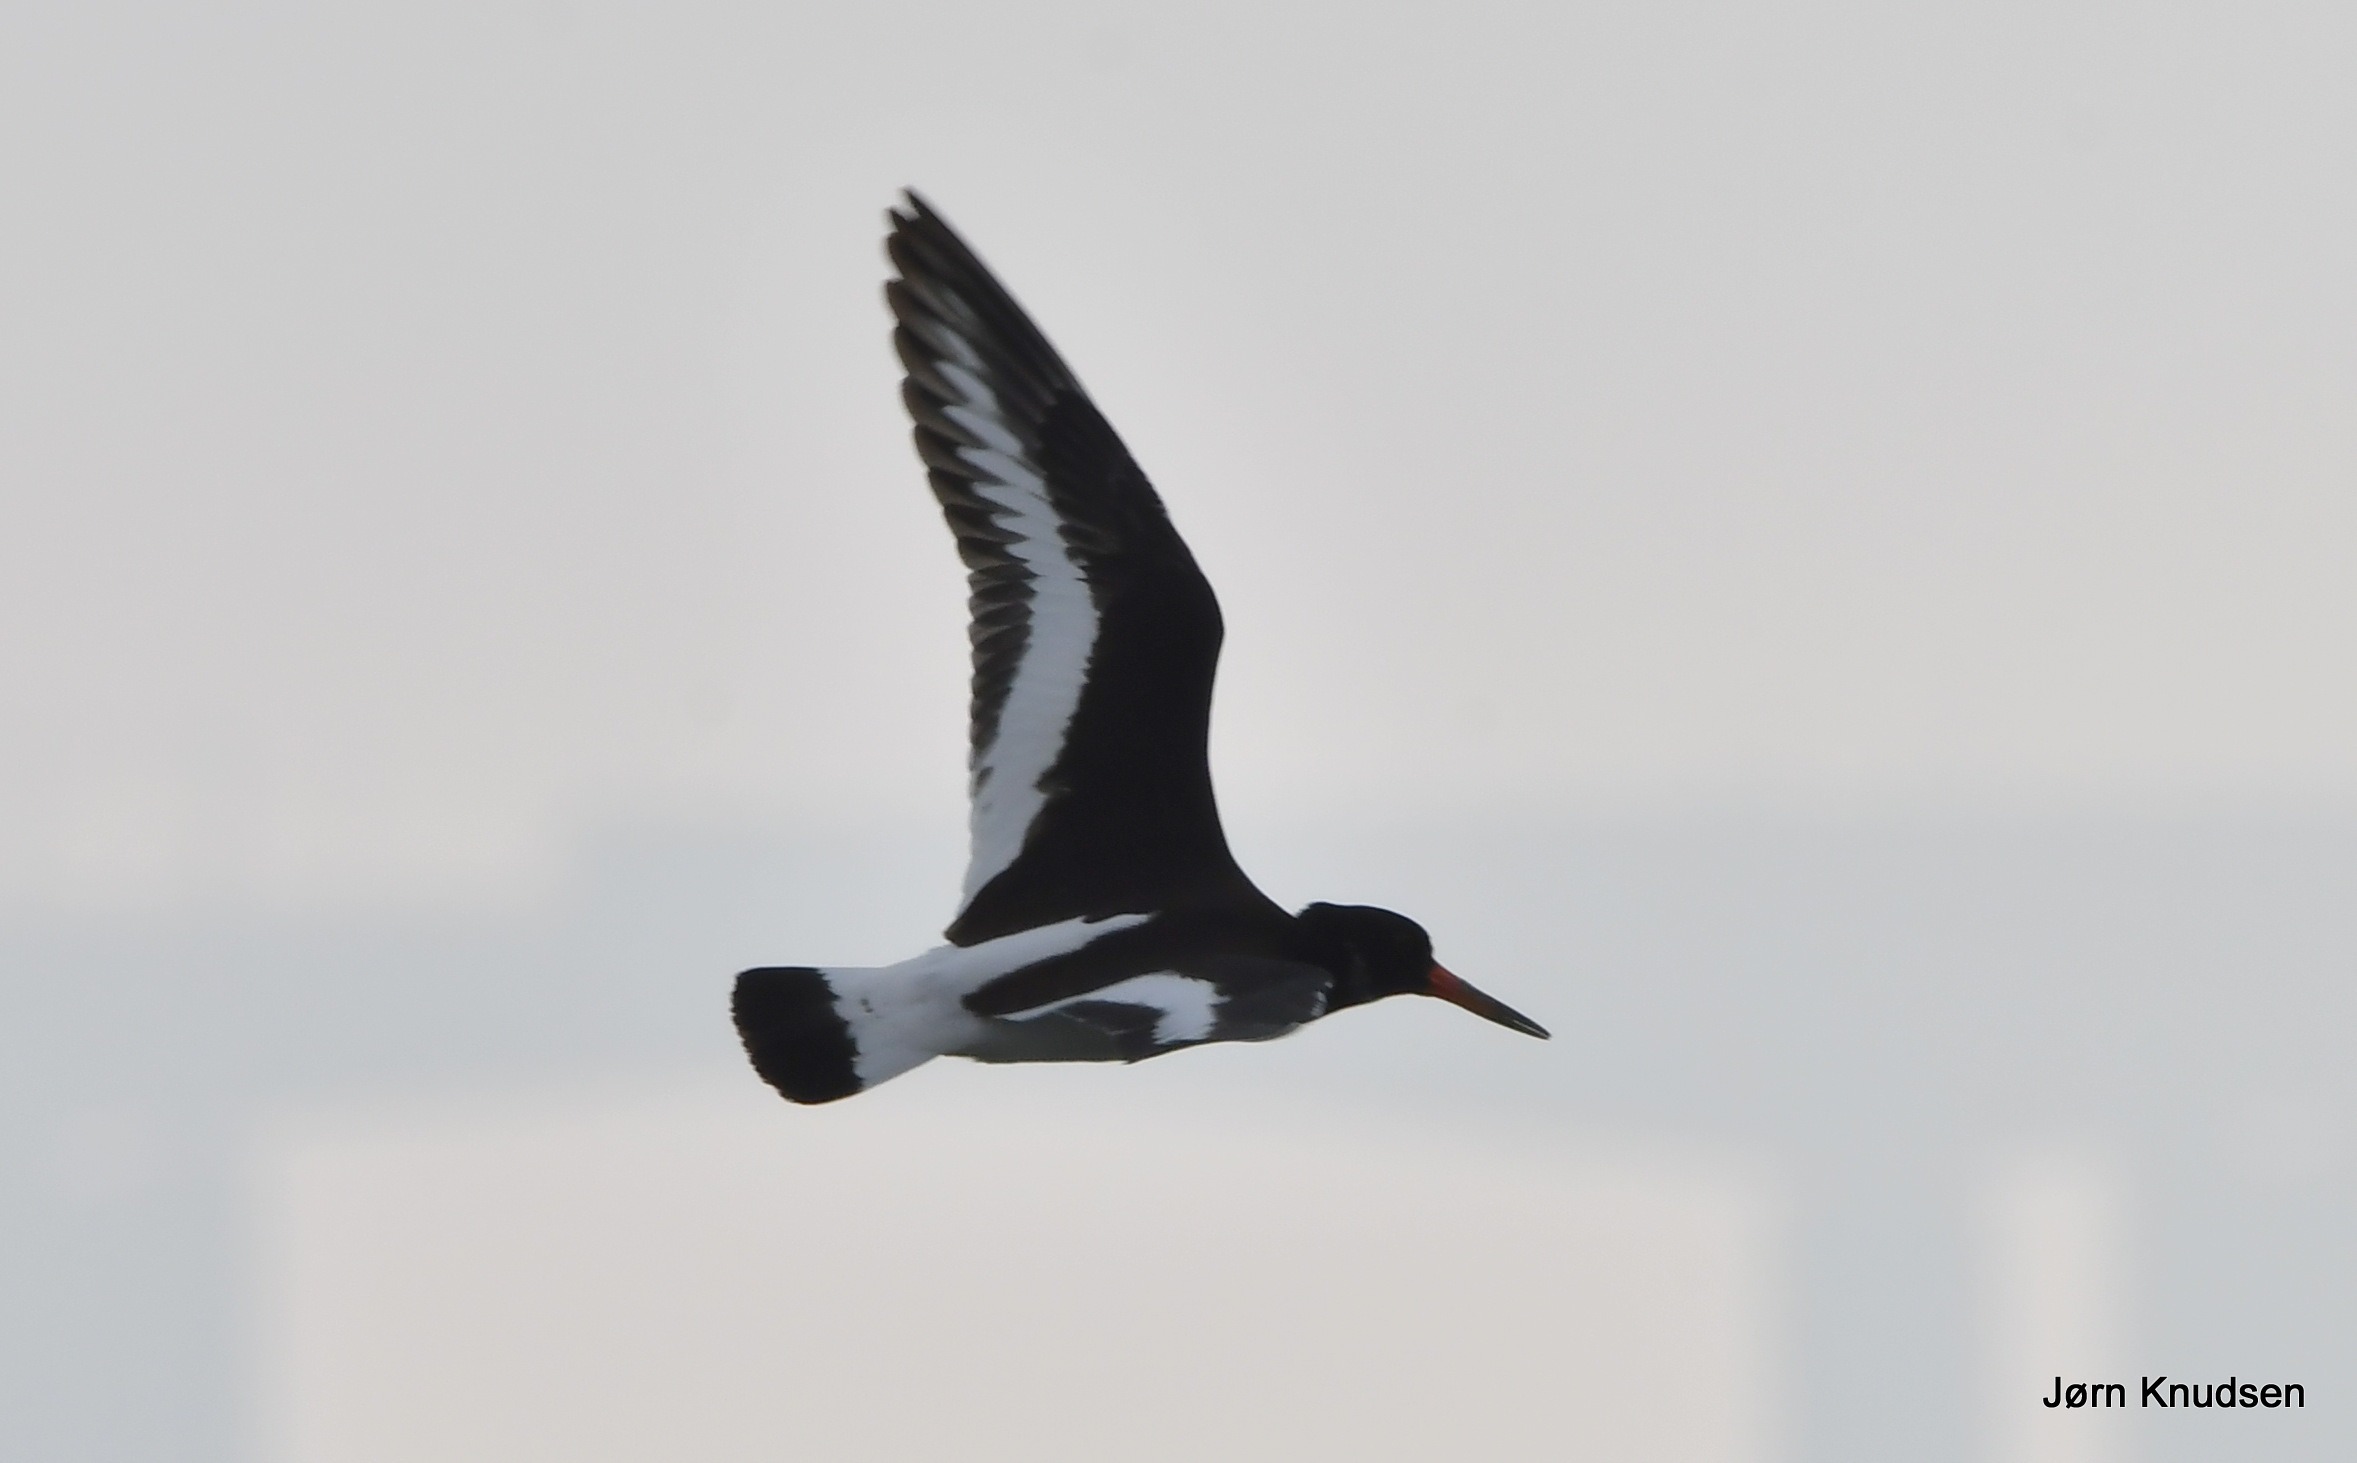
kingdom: Animalia
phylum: Chordata
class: Aves
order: Charadriiformes
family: Haematopodidae
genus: Haematopus
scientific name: Haematopus ostralegus
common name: Strandskade
